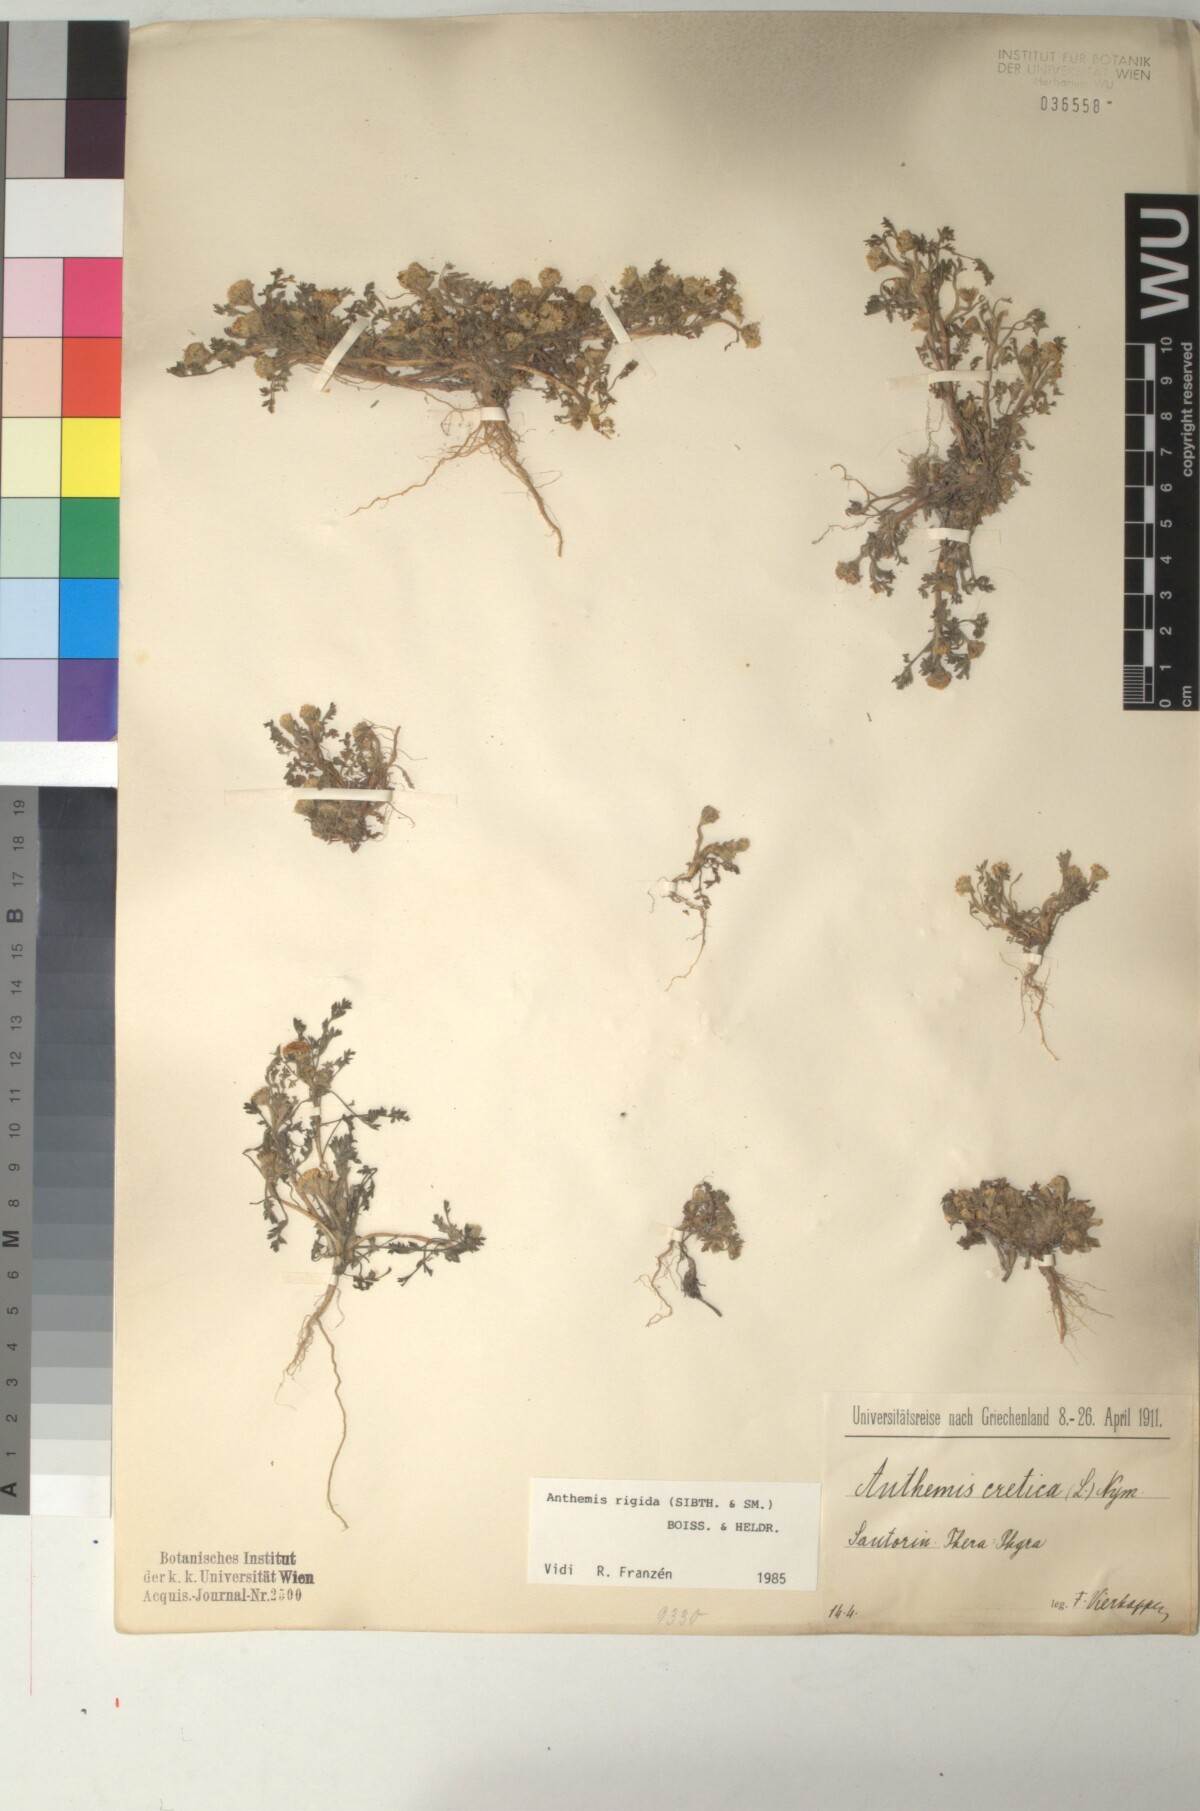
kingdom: Plantae
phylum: Tracheophyta
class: Magnoliopsida
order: Asterales
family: Asteraceae
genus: Anthemis
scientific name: Anthemis rigida
